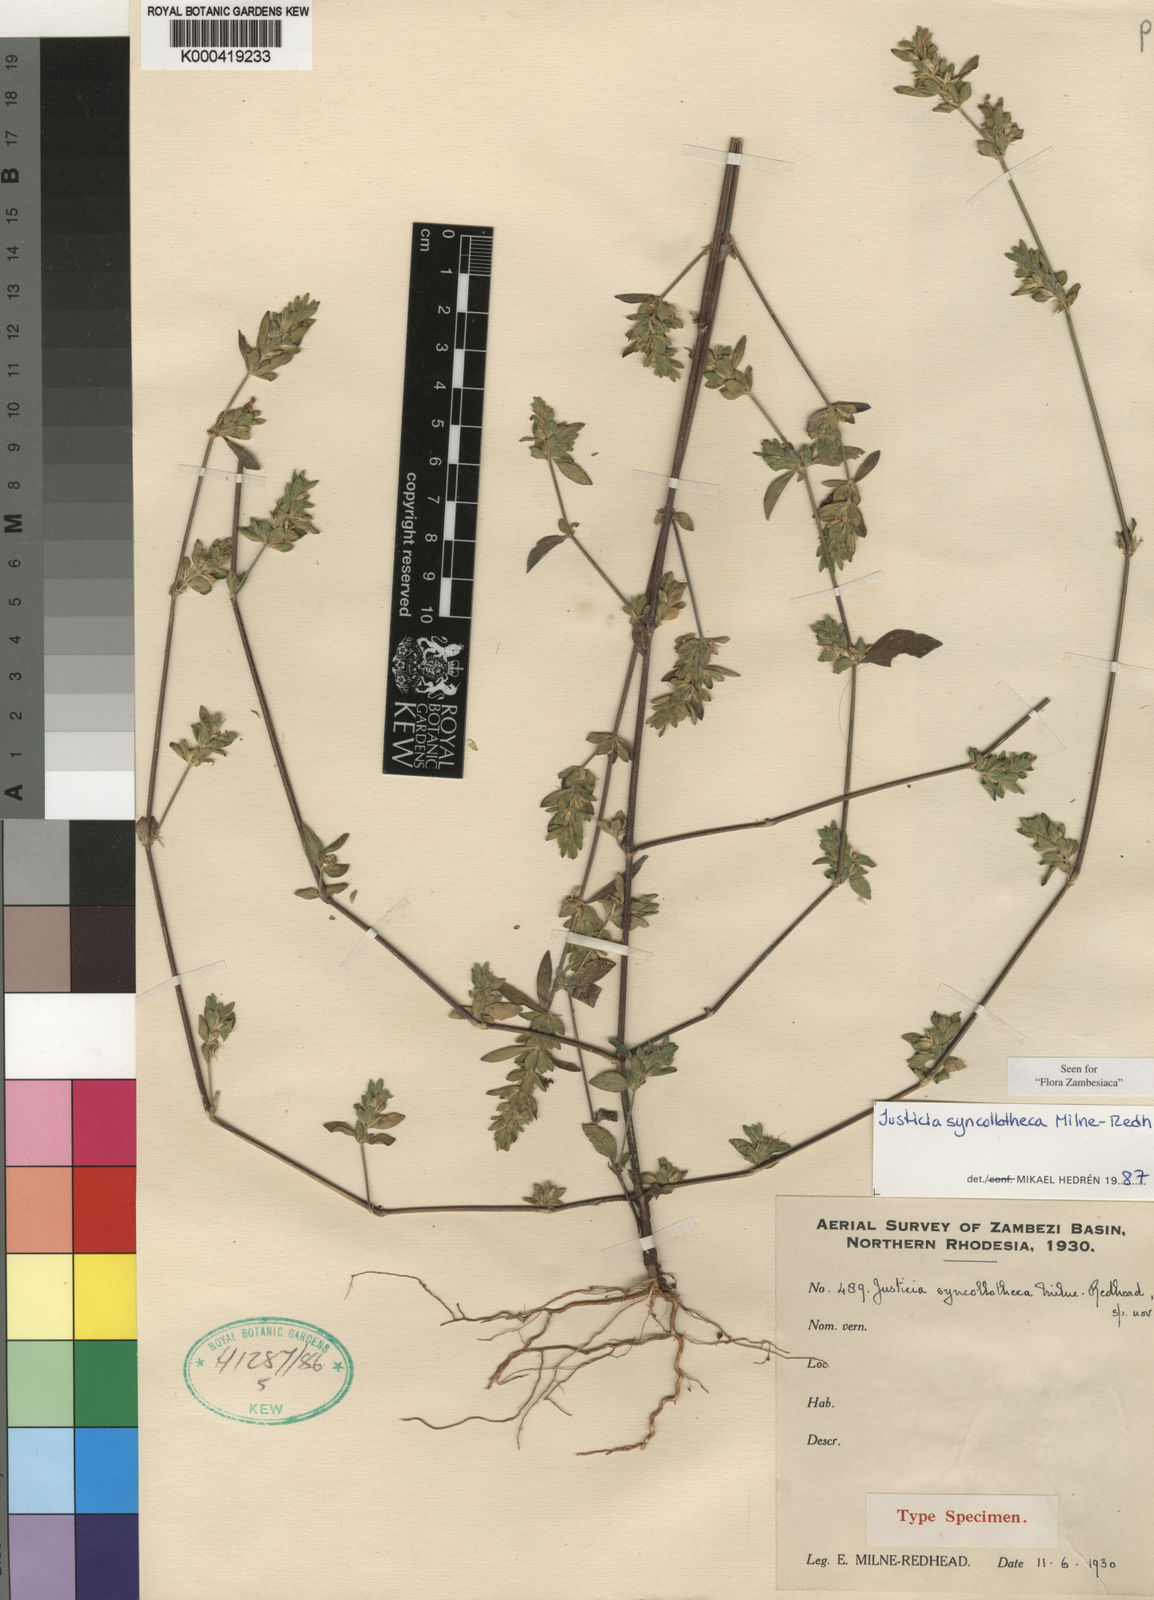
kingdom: Plantae
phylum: Tracheophyta
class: Magnoliopsida
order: Lamiales
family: Acanthaceae
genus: Justicia
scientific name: Justicia syncollotheca
